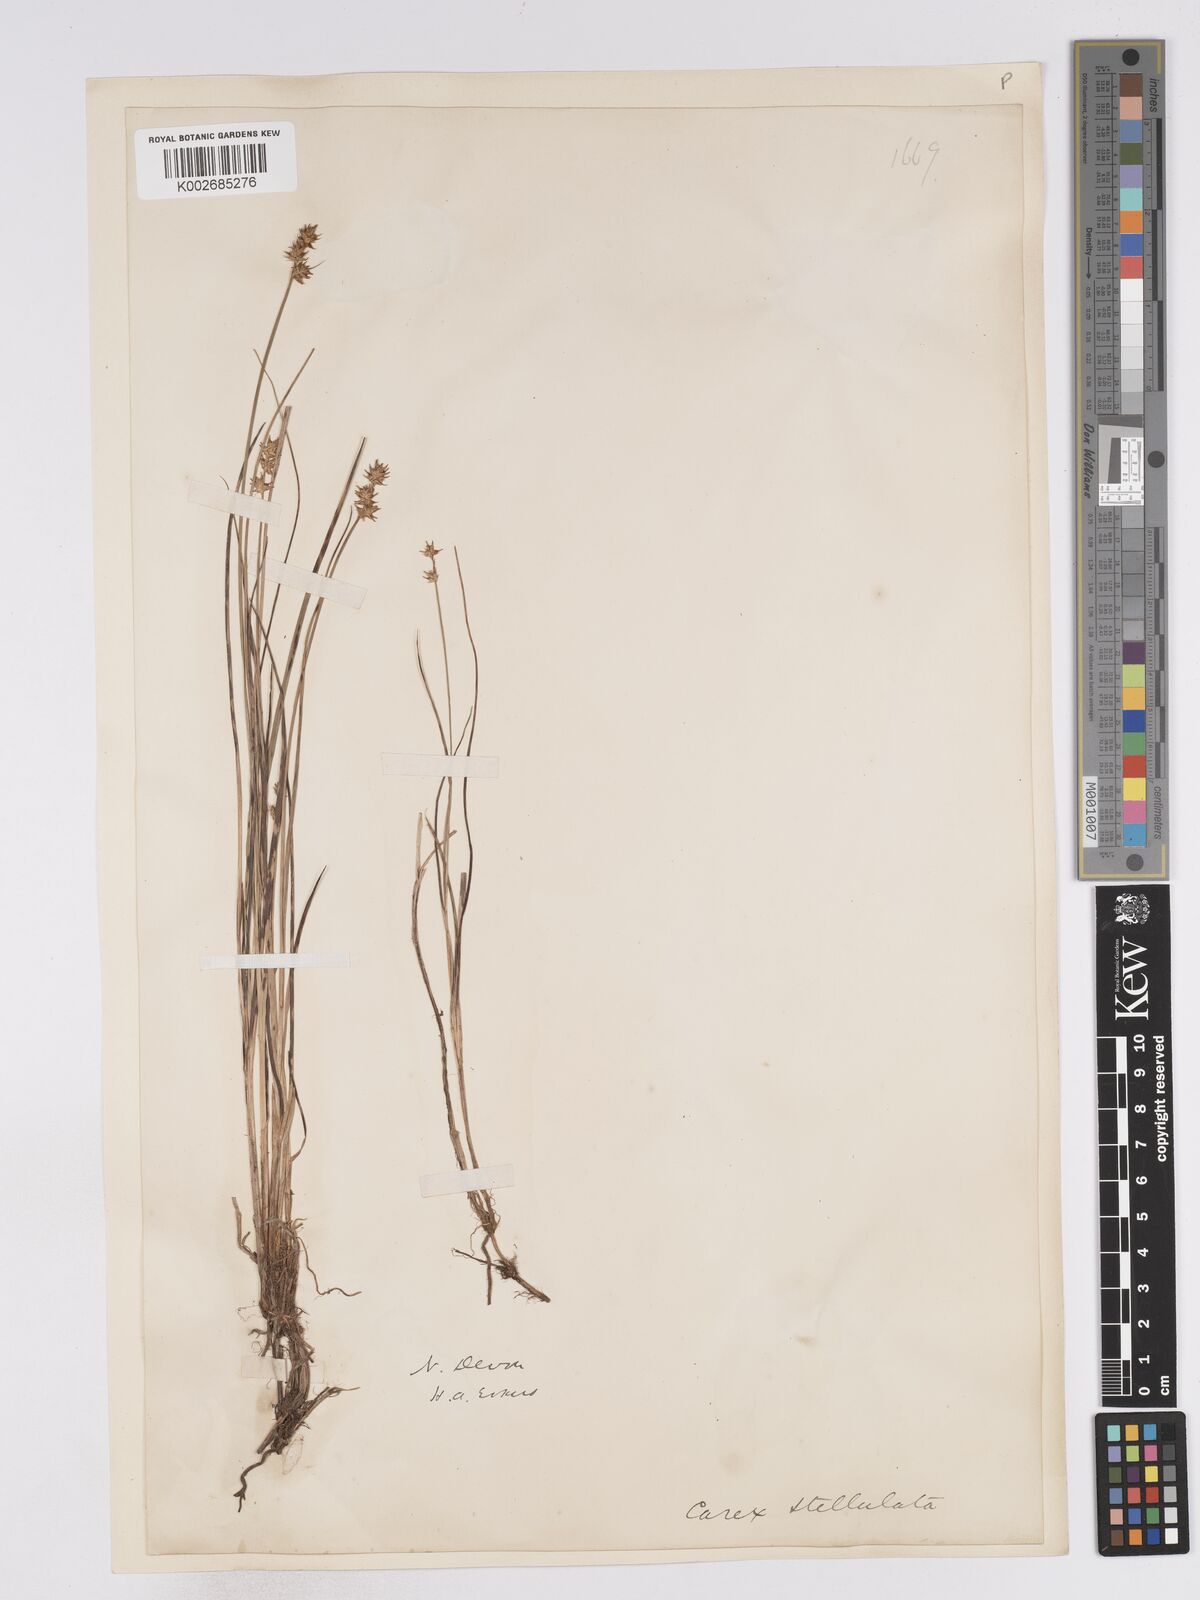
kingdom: Plantae
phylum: Tracheophyta
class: Liliopsida
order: Poales
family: Cyperaceae
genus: Carex
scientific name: Carex echinata
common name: Star sedge
